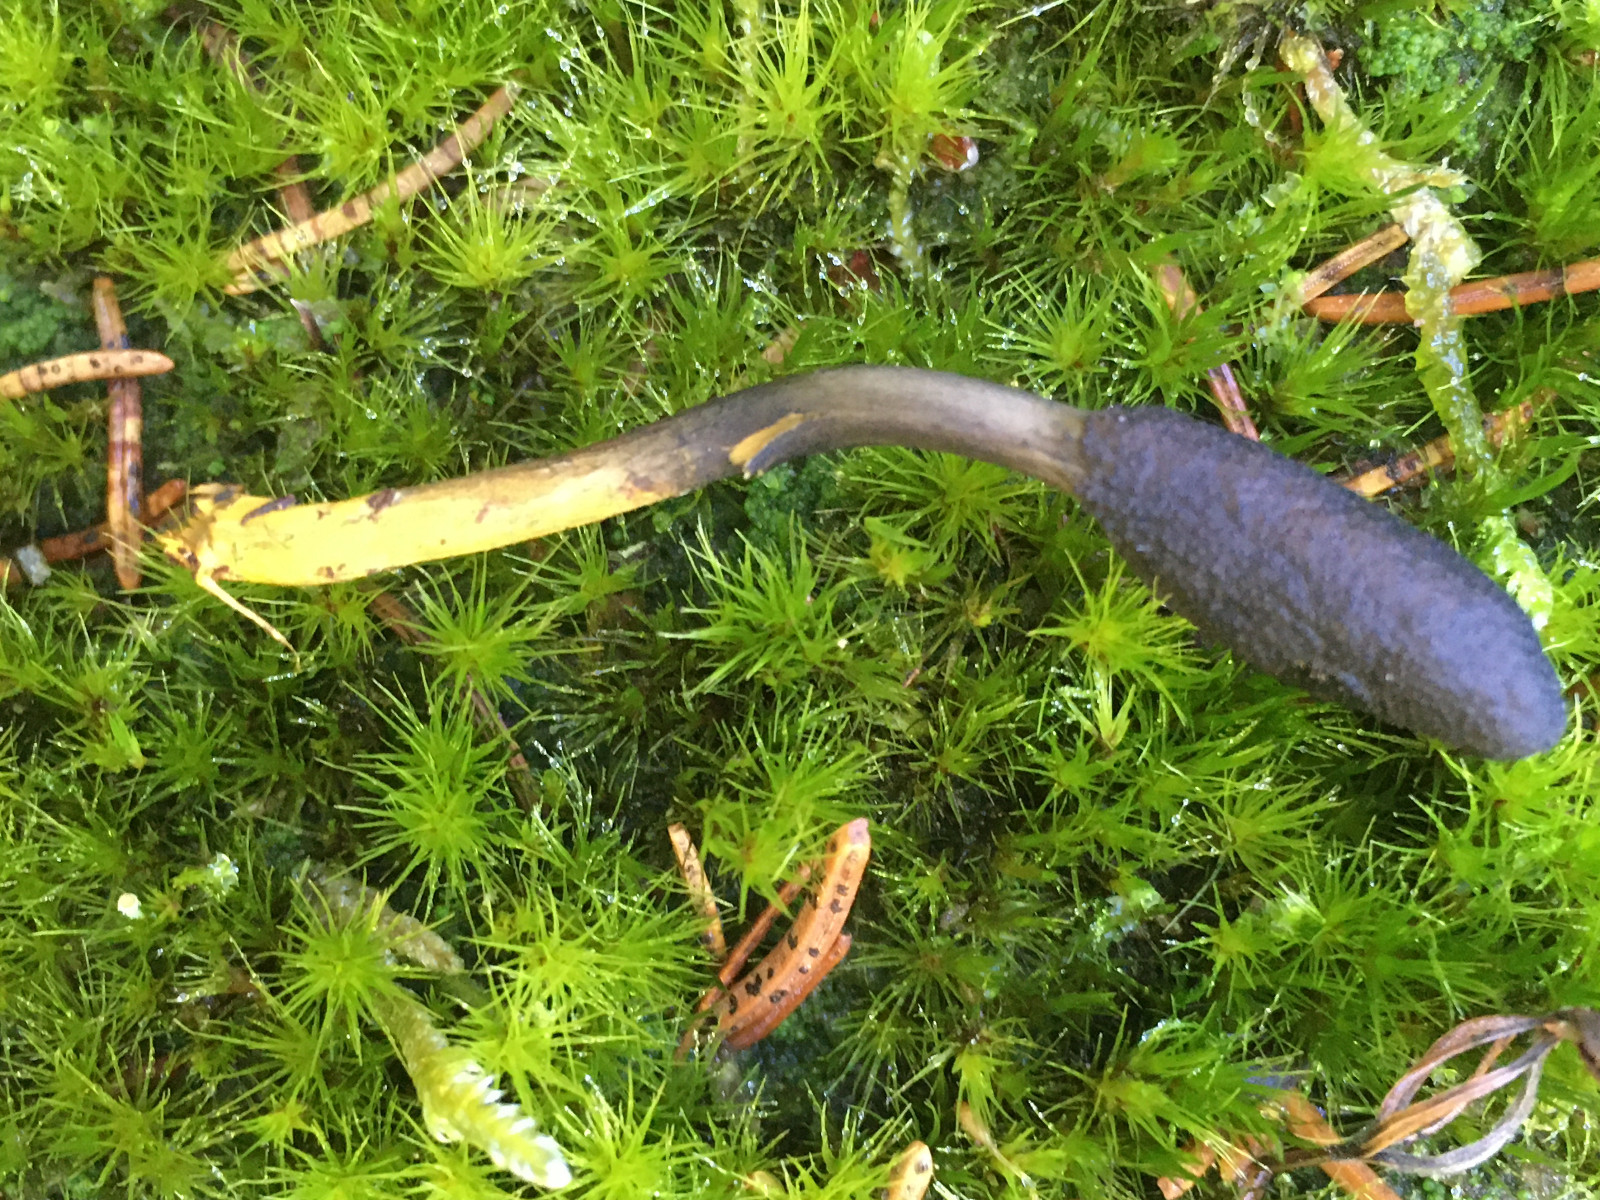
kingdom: Fungi
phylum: Ascomycota
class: Sordariomycetes
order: Hypocreales
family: Ophiocordycipitaceae
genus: Tolypocladium
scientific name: Tolypocladium ophioglossoides
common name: slank snyltekølle
